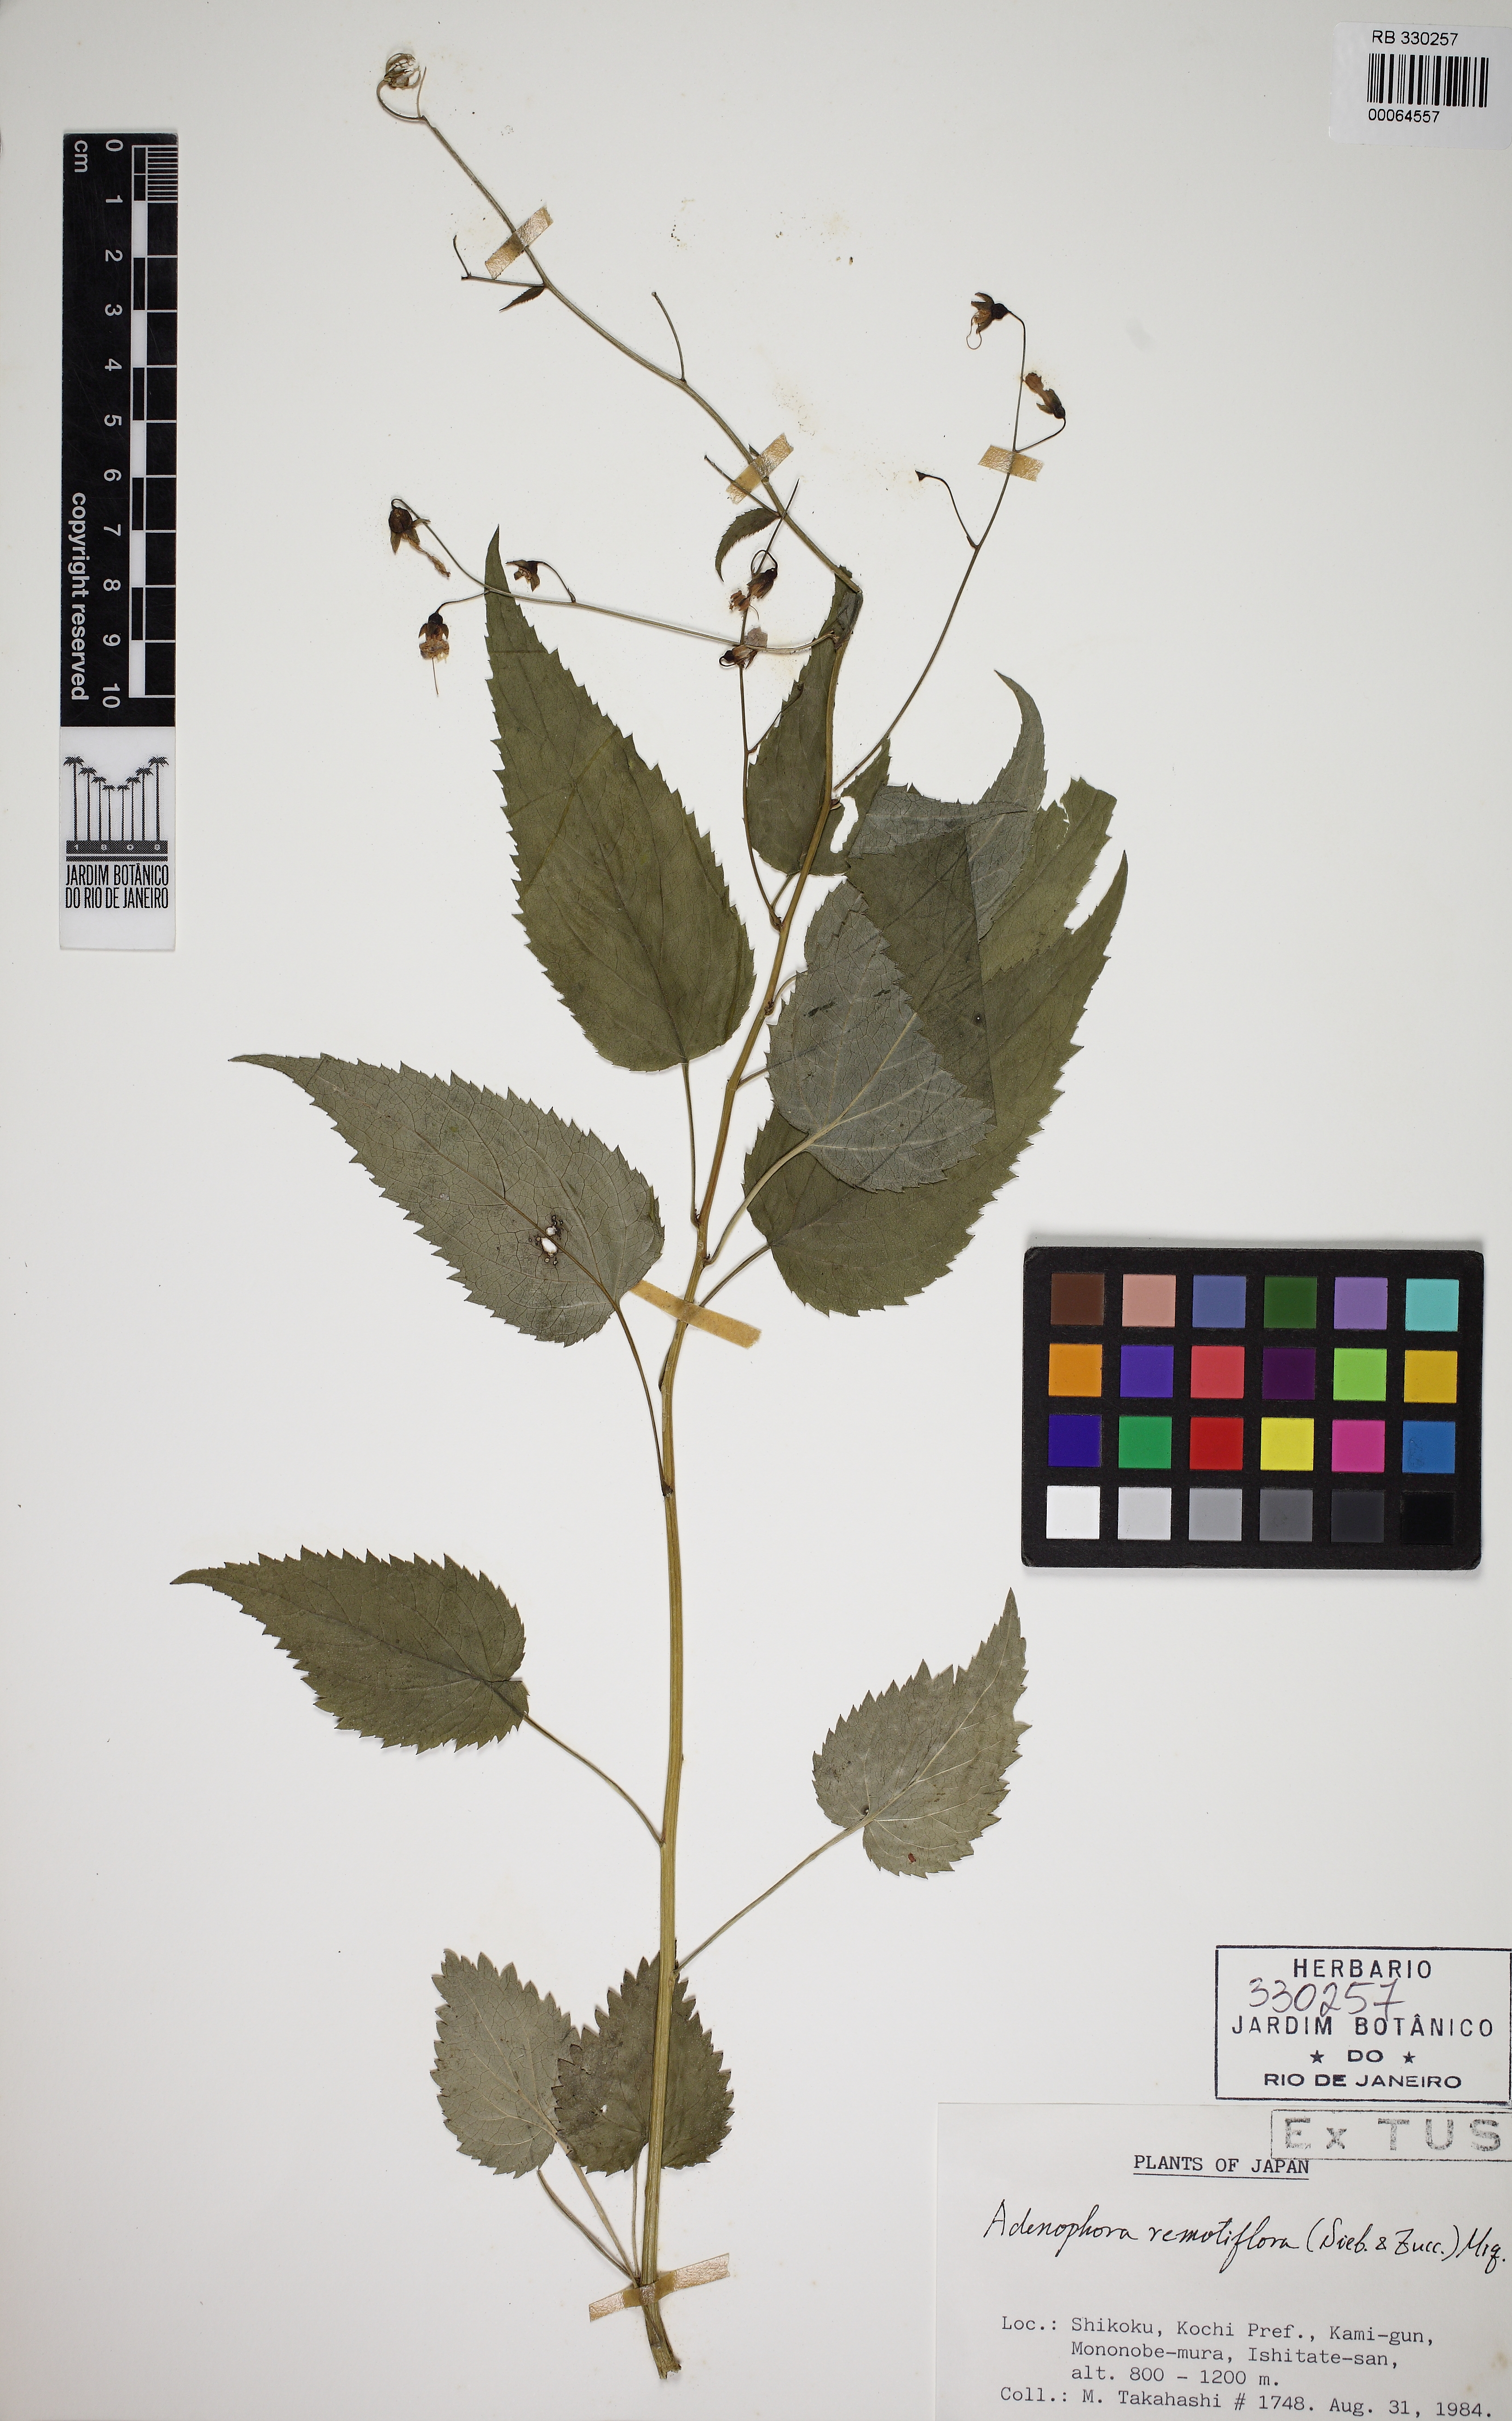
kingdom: Plantae
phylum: Tracheophyta
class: Magnoliopsida
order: Asterales
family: Campanulaceae
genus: Adenophora
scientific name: Adenophora remotiflora
